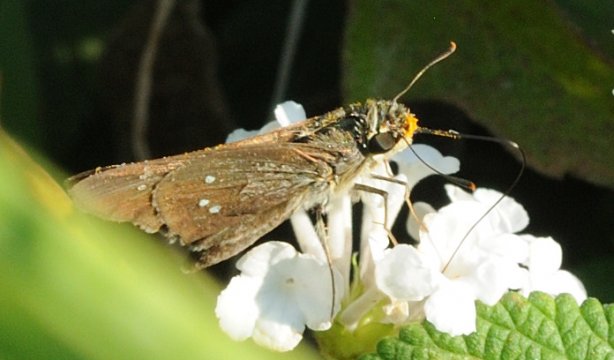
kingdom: Animalia
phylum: Arthropoda
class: Insecta
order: Lepidoptera
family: Hesperiidae
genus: Borbo
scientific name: Borbo borbonica
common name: Zeller's Skipper
